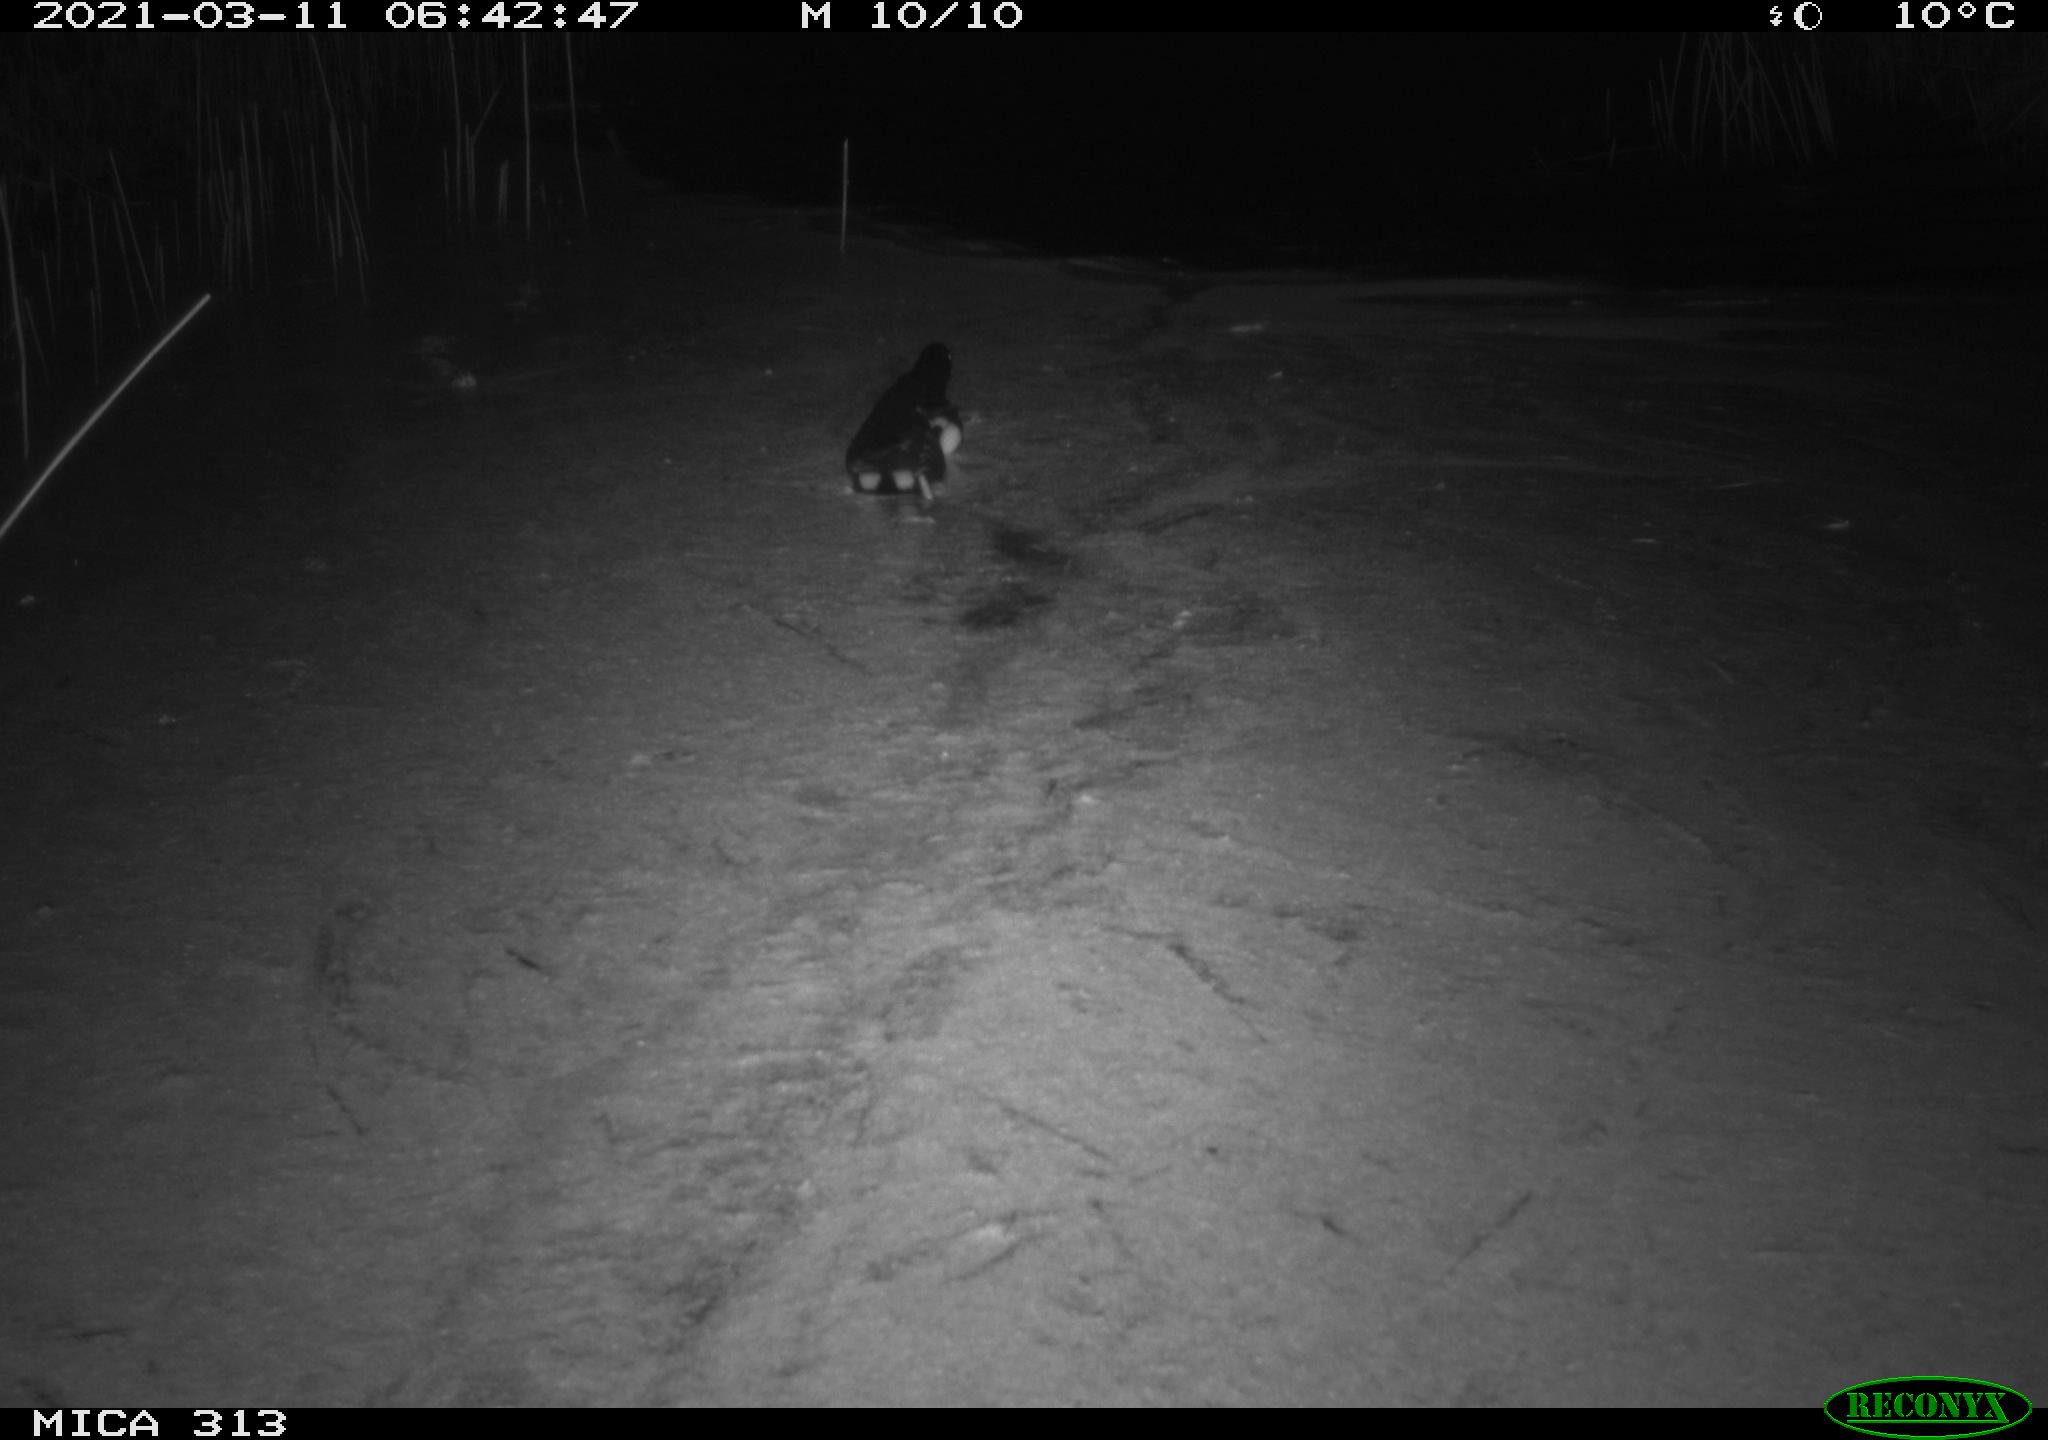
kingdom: Animalia
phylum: Chordata
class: Aves
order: Gruiformes
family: Rallidae
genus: Gallinula
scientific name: Gallinula chloropus
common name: Common moorhen
